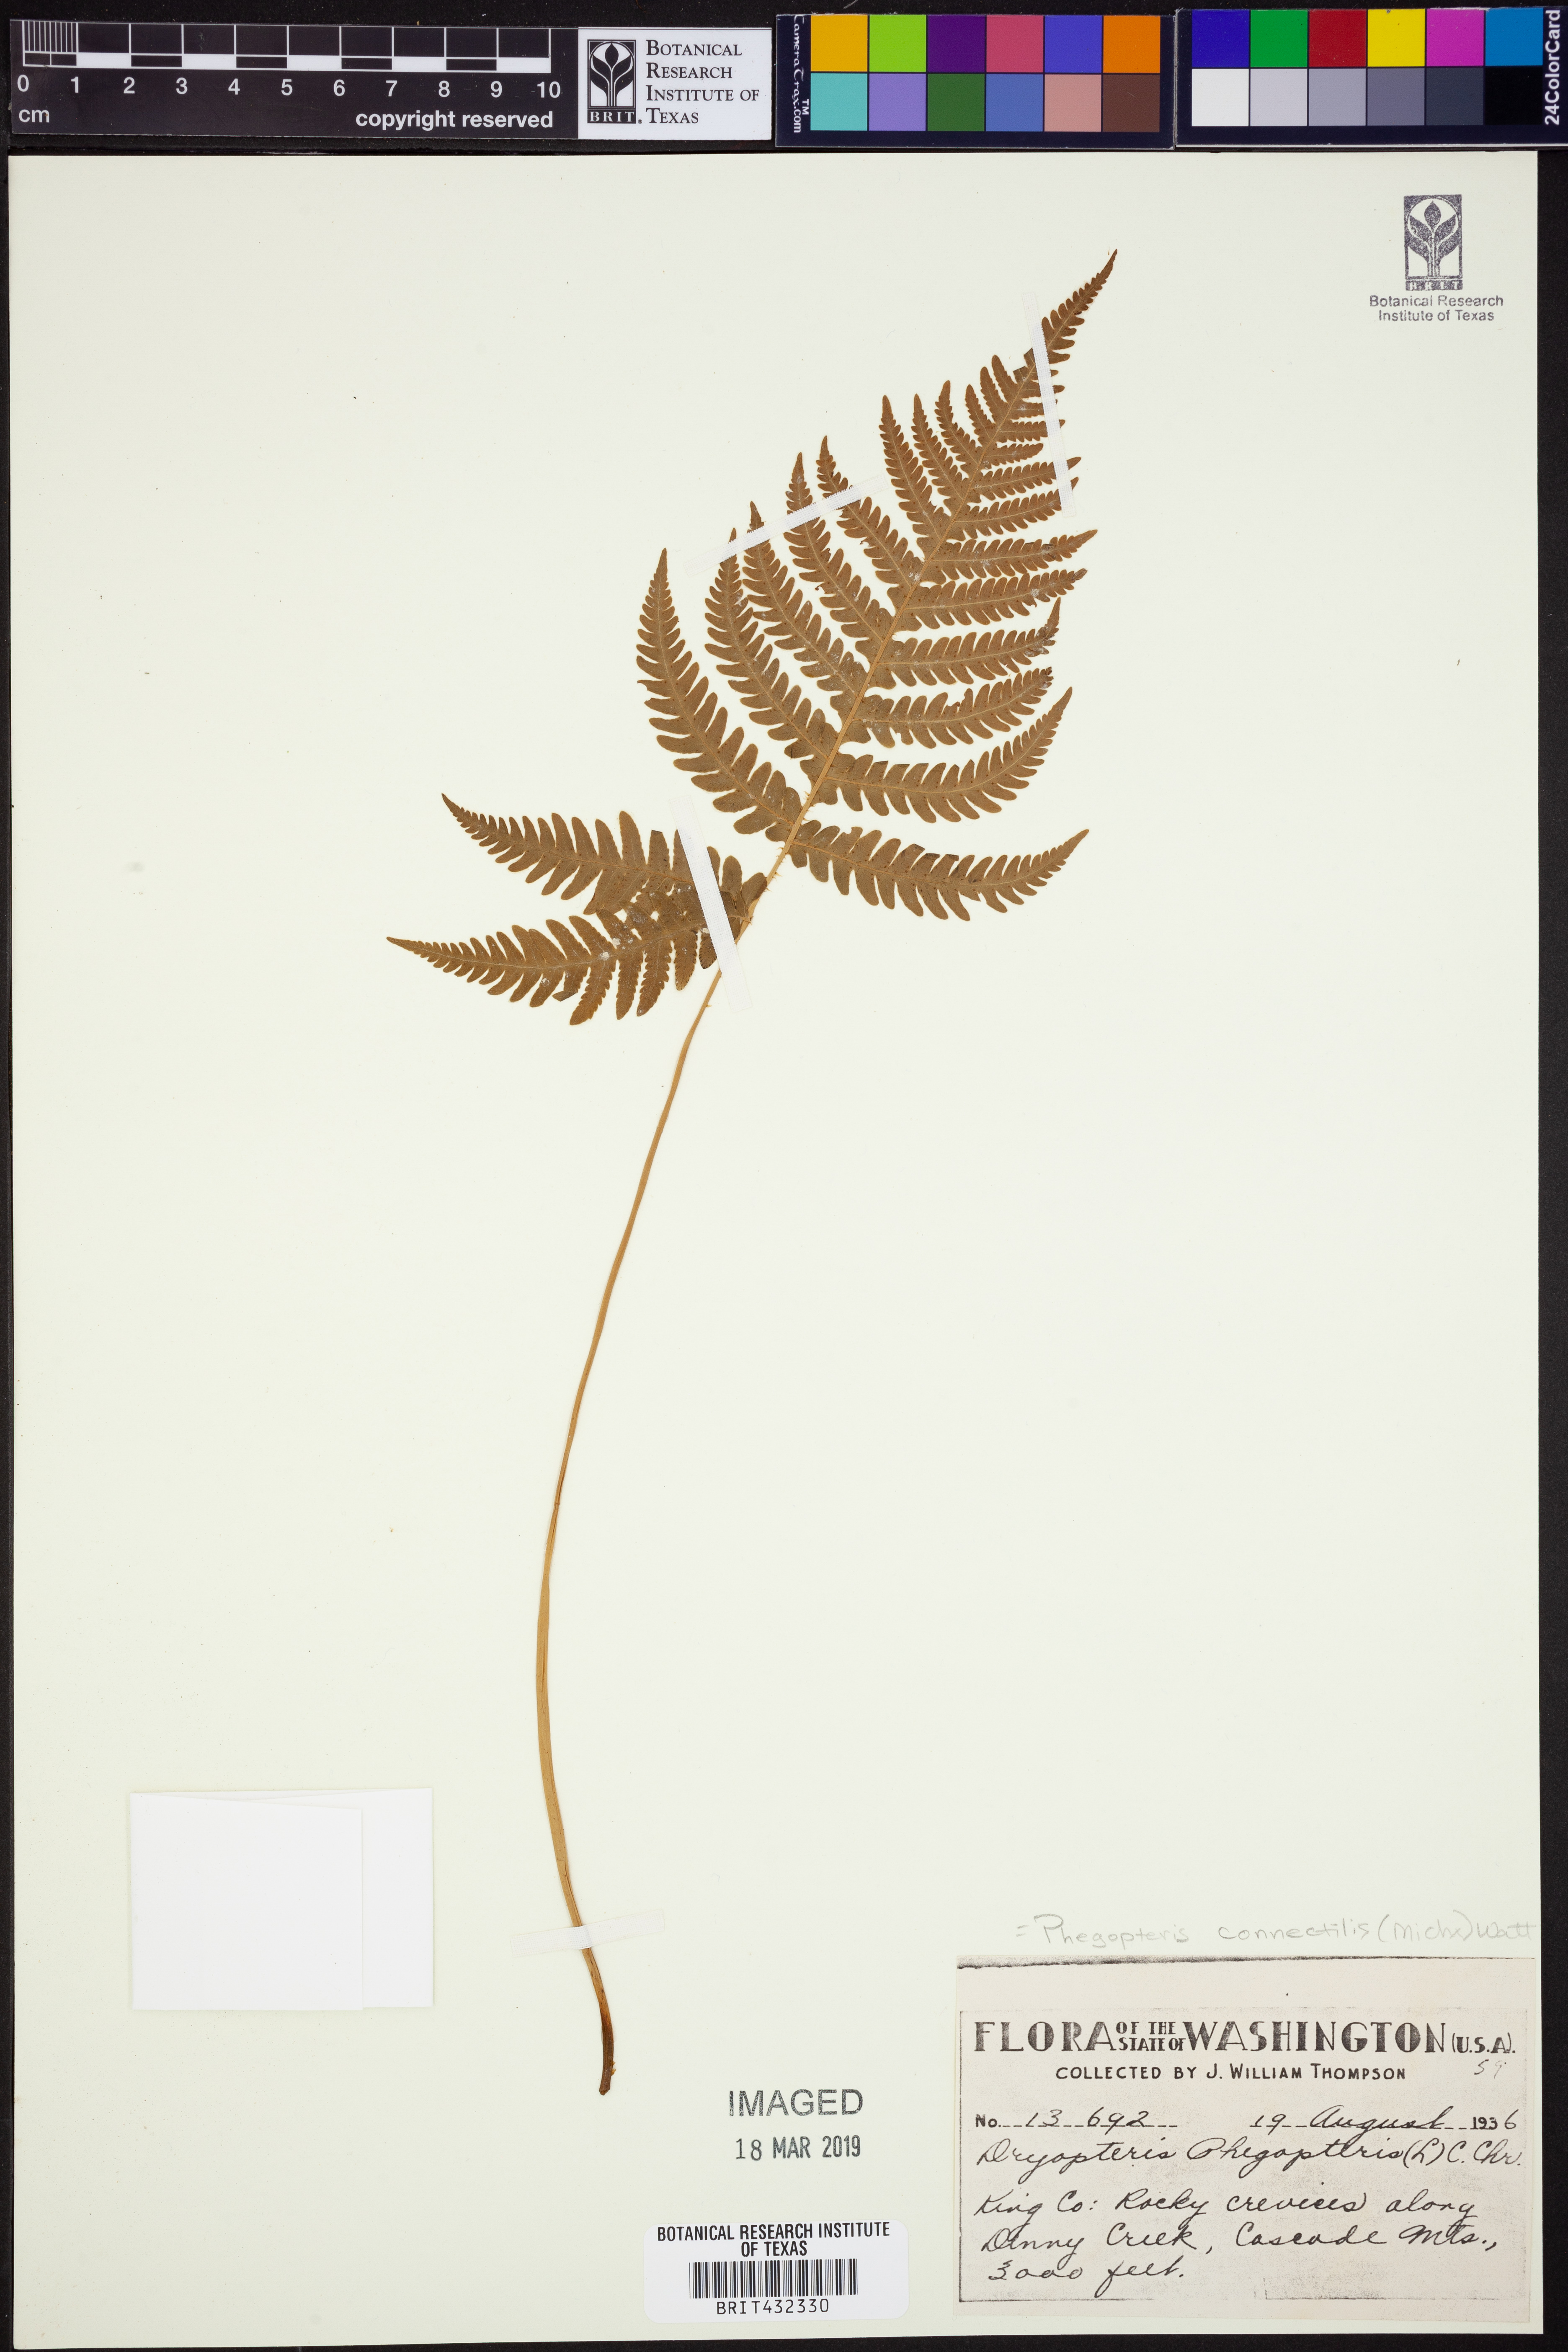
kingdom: Plantae
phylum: Tracheophyta
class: Polypodiopsida
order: Polypodiales
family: Thelypteridaceae
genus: Phegopteris
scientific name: Phegopteris connectilis
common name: Beech fern
